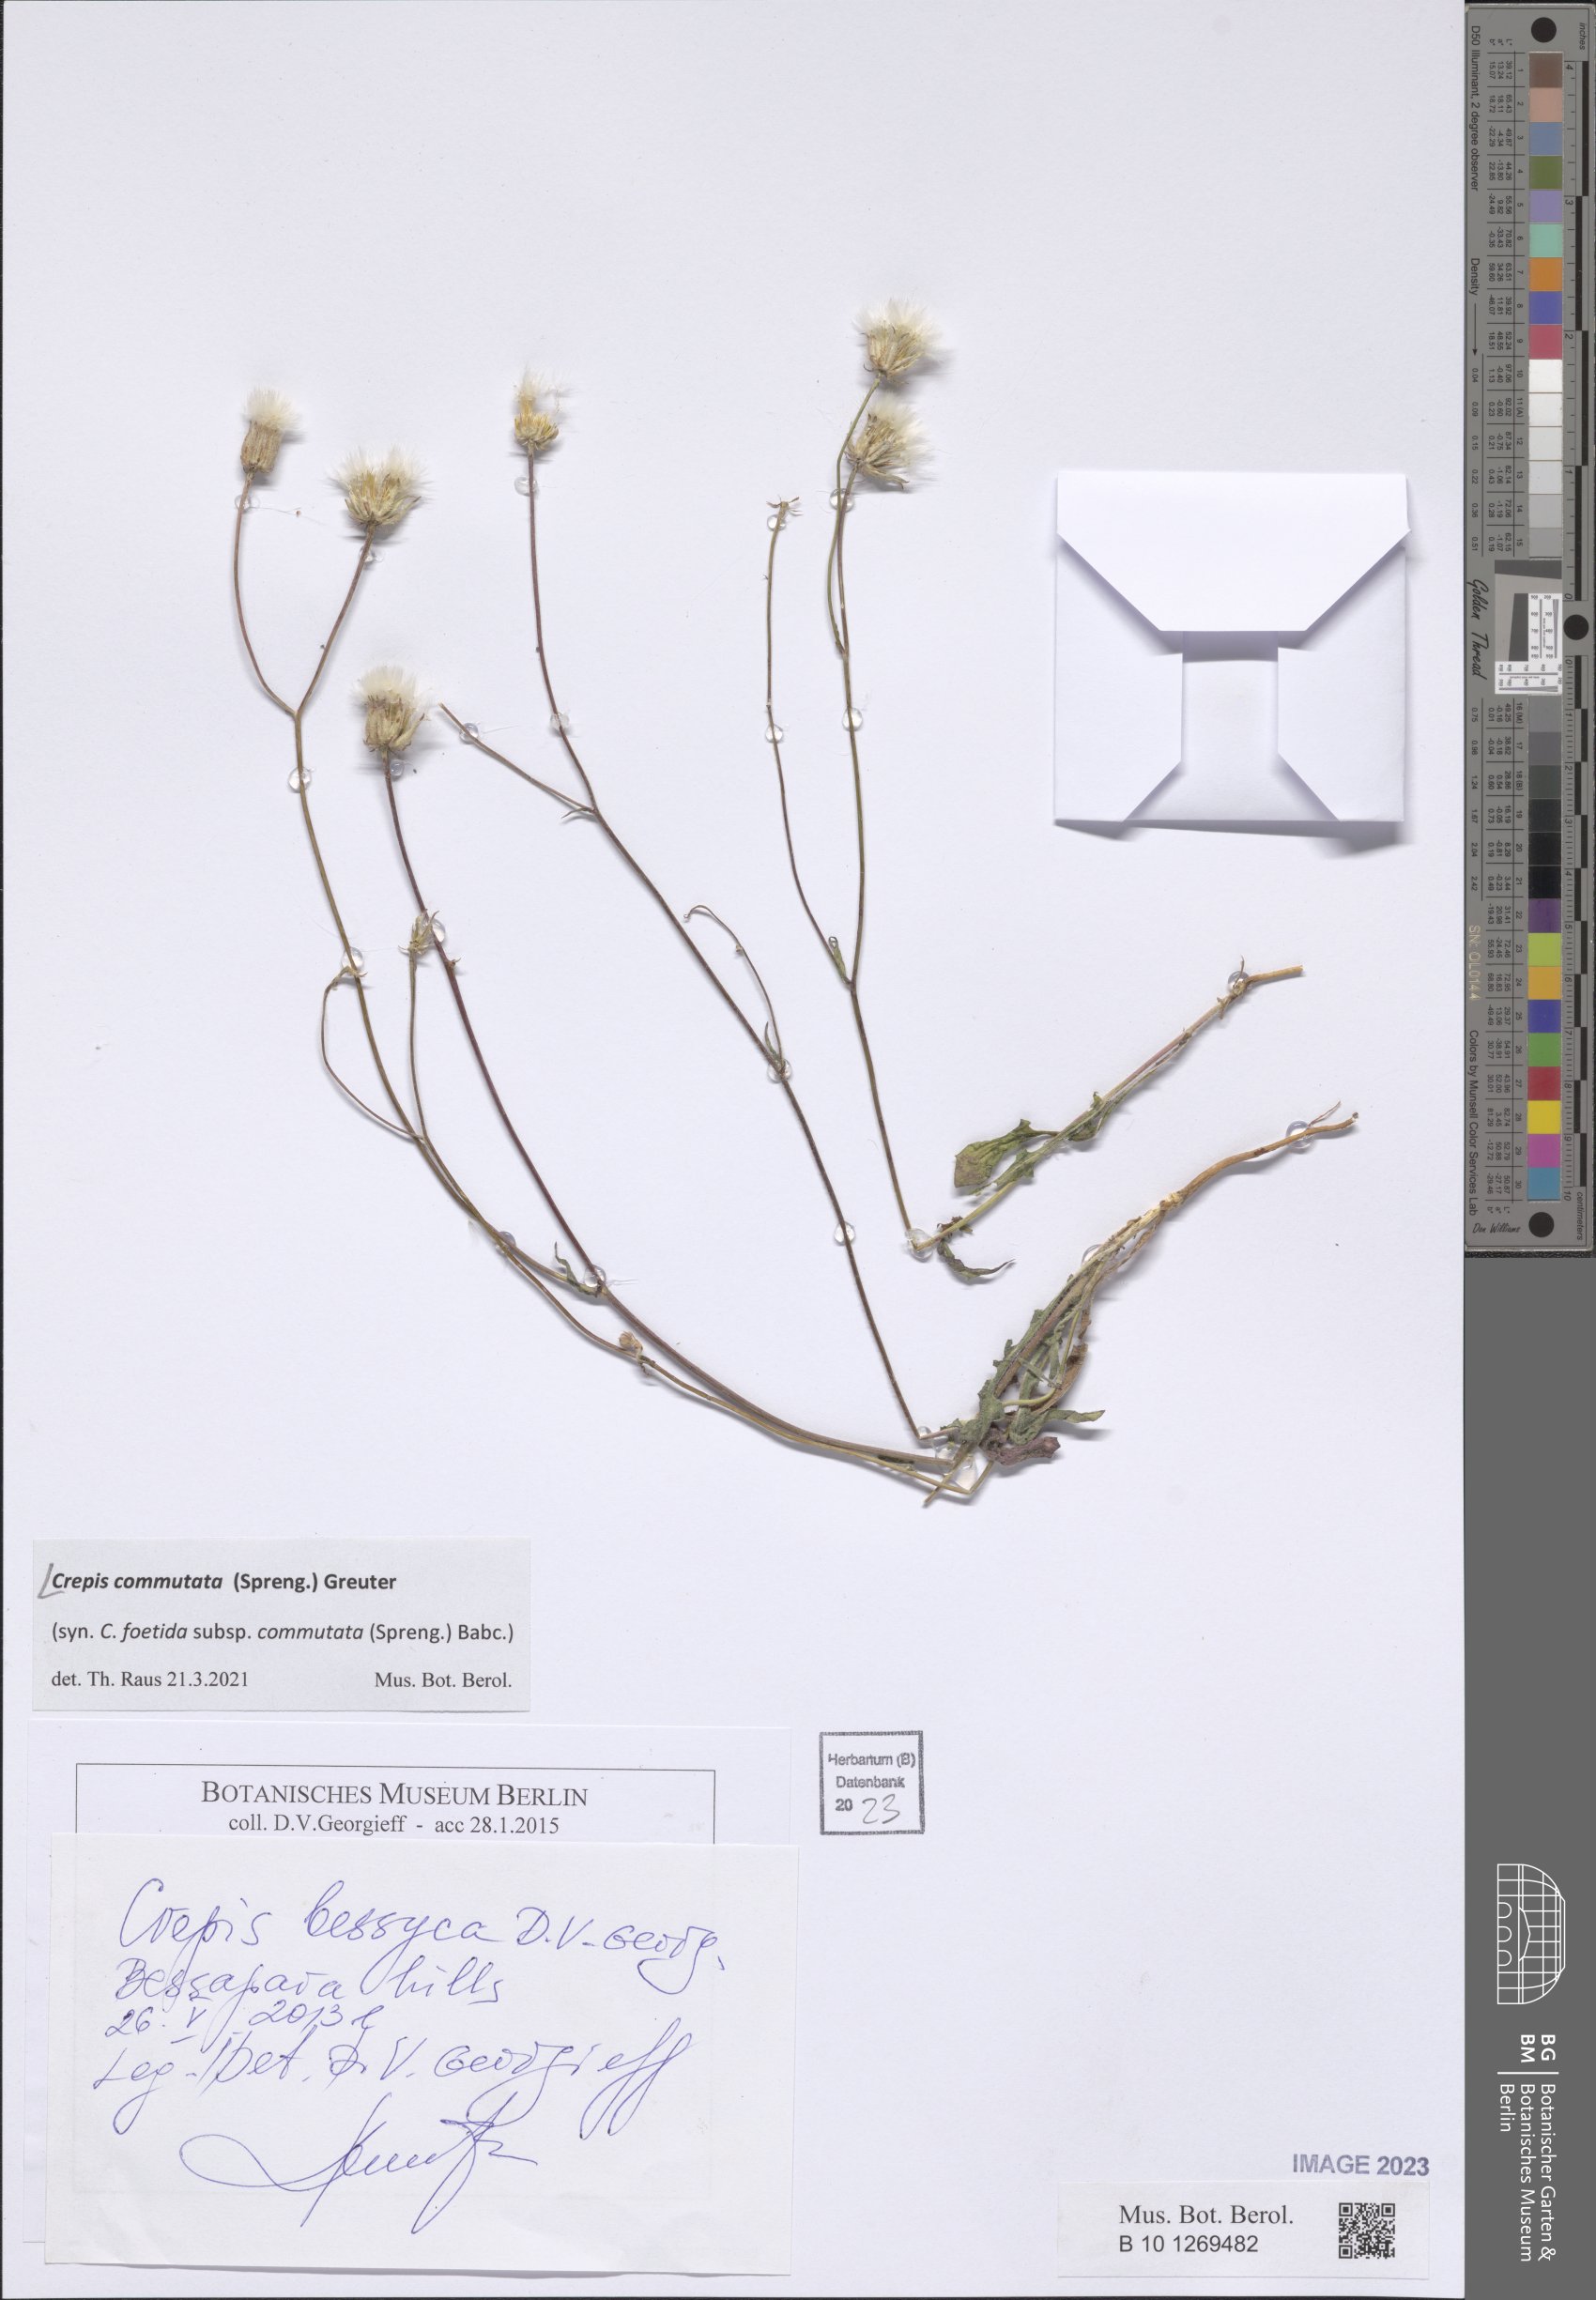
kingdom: Plantae
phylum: Tracheophyta
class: Magnoliopsida
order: Asterales
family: Asteraceae
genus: Crepis
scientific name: Crepis commutata
